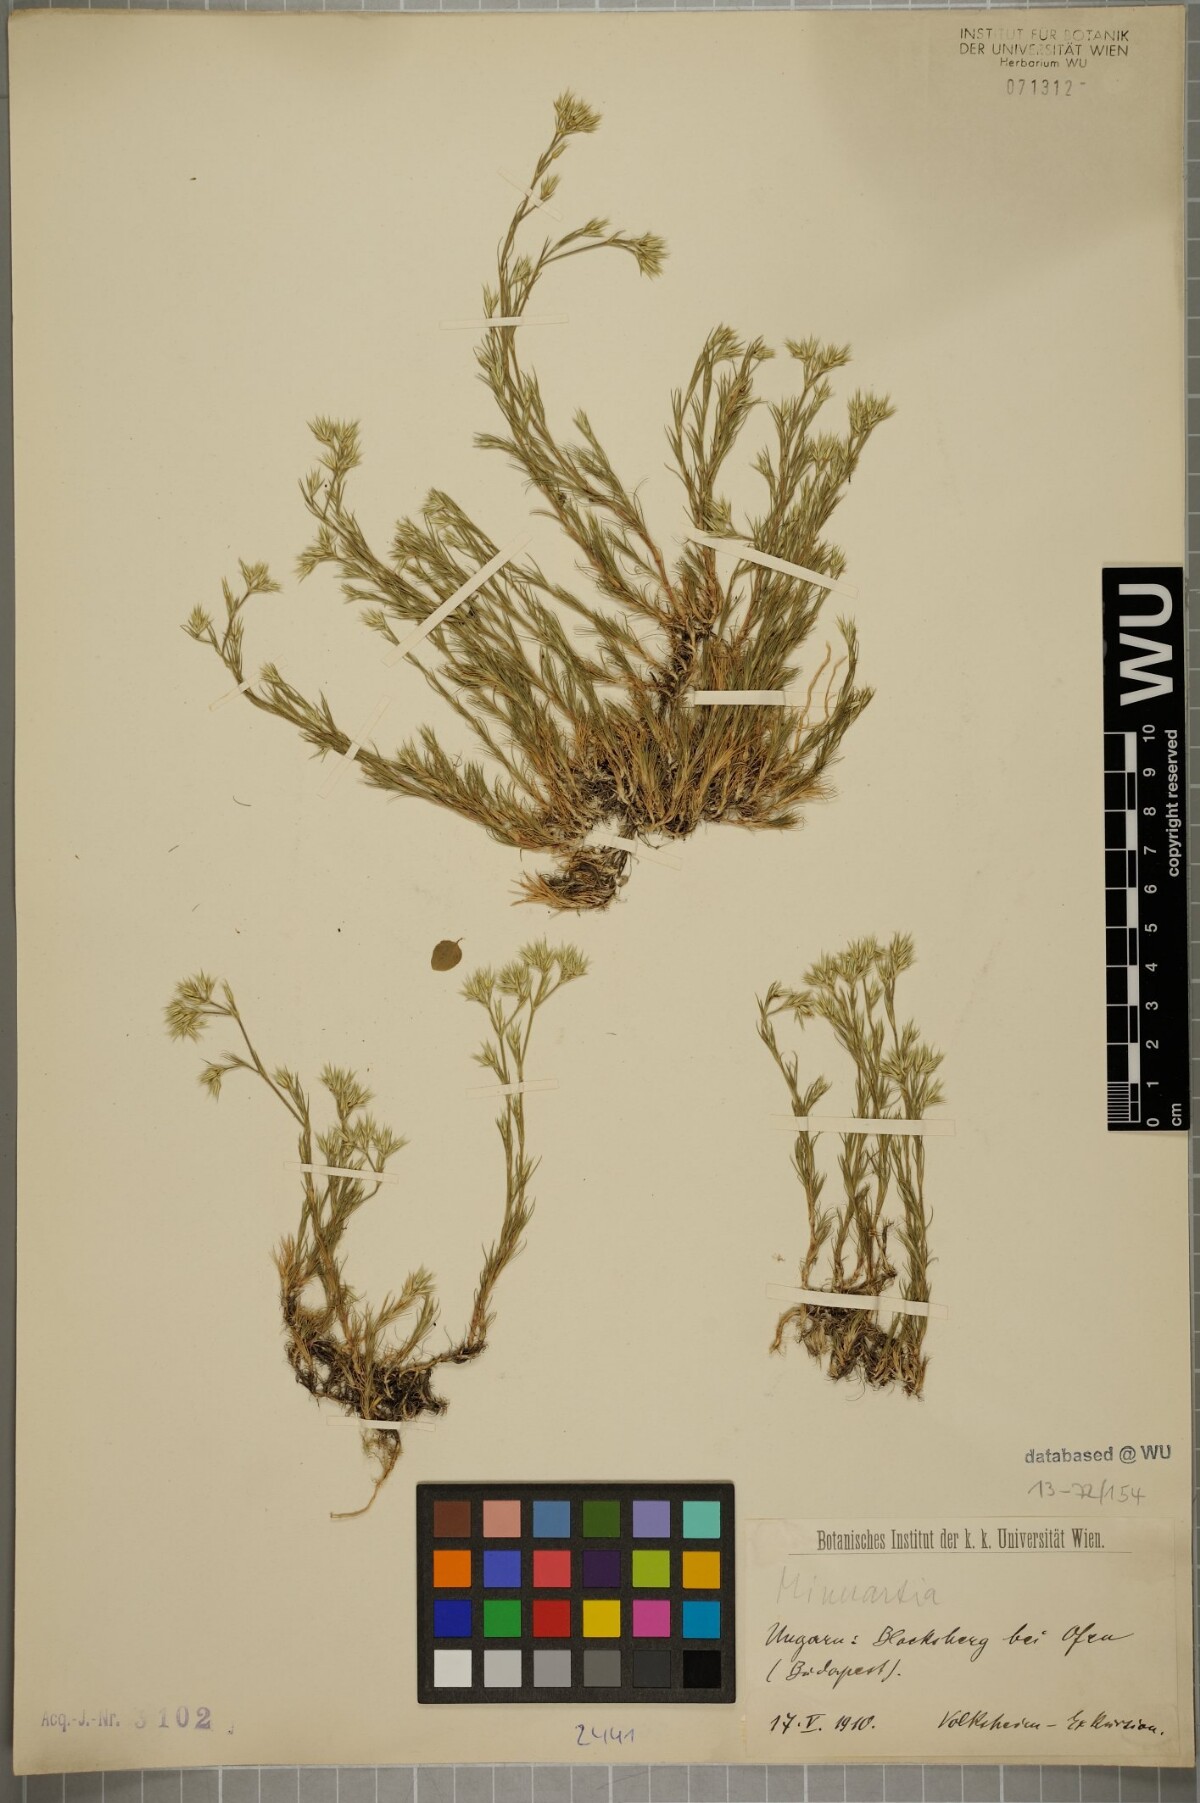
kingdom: Plantae
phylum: Tracheophyta
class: Magnoliopsida
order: Caryophyllales
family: Caryophyllaceae
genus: Minuartia
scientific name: Minuartia glomerata
